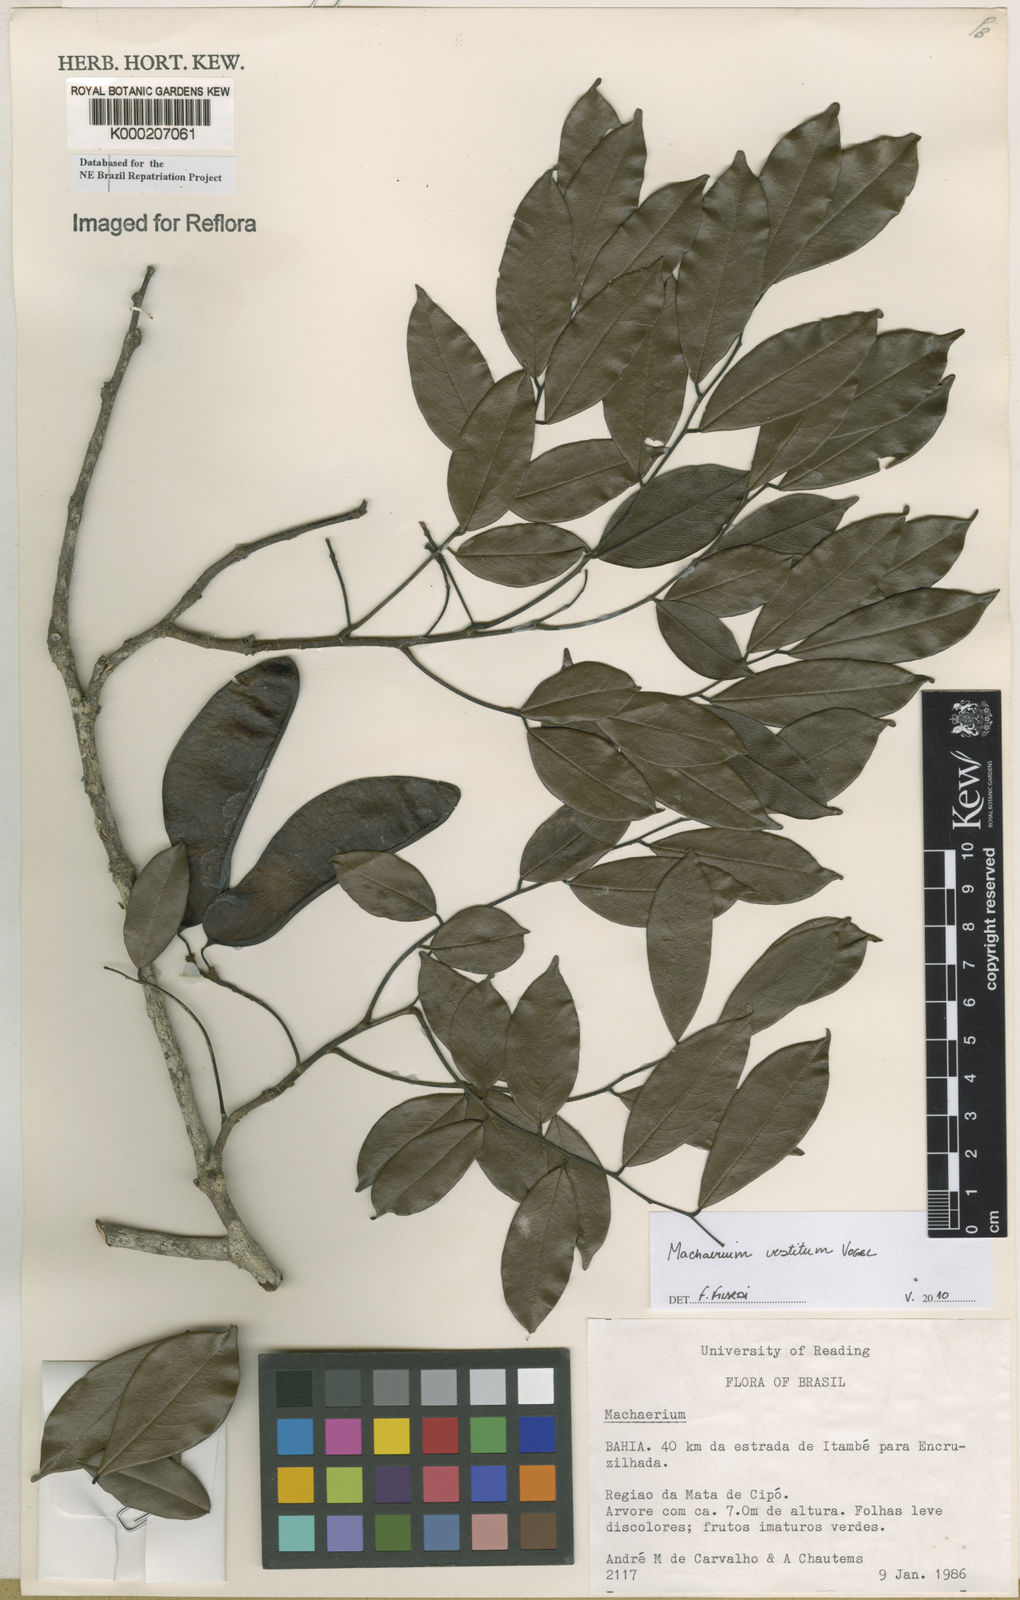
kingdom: Plantae
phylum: Tracheophyta
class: Magnoliopsida
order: Fabales
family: Fabaceae
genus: Machaerium
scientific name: Machaerium
